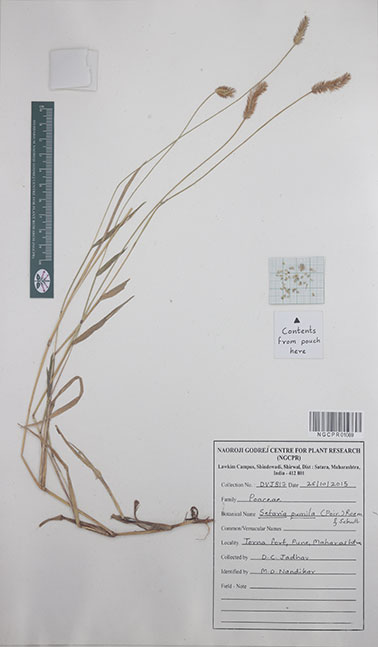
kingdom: Plantae
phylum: Tracheophyta
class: Liliopsida
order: Poales
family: Poaceae
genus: Setaria
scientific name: Setaria pumila
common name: Yellow bristle-grass
